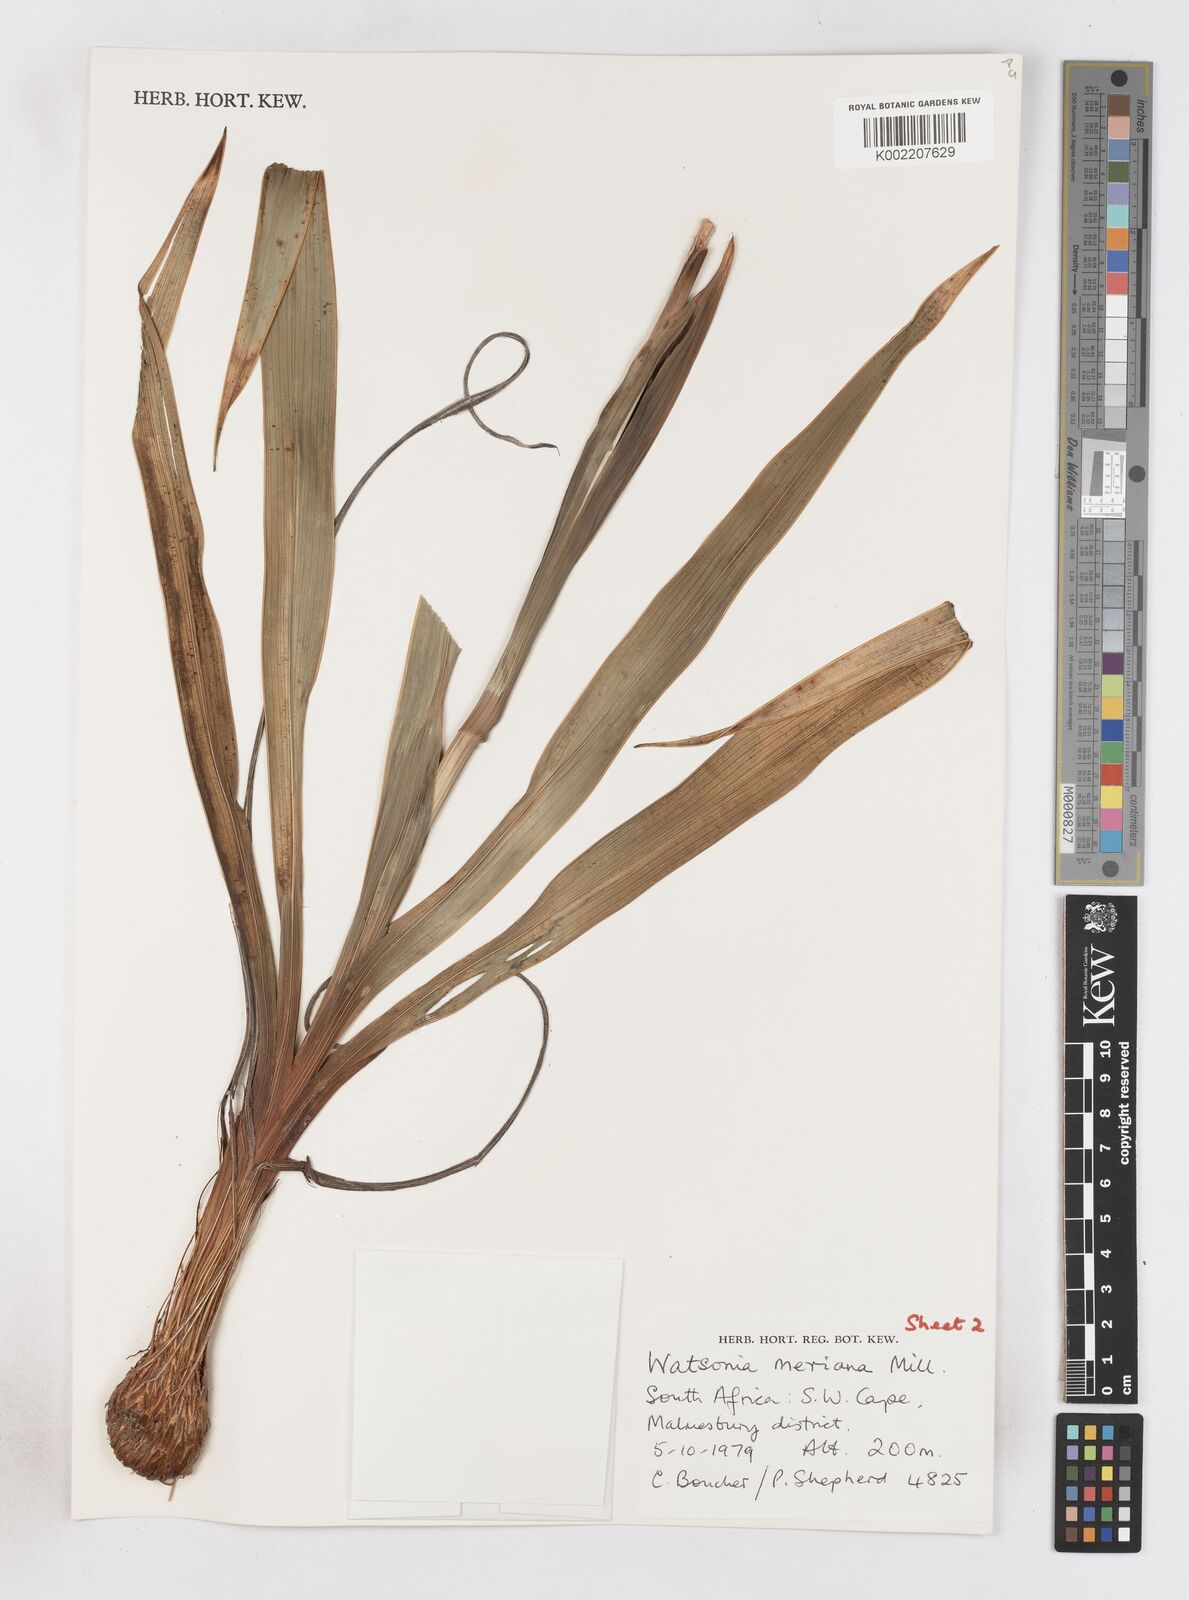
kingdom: Plantae
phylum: Tracheophyta
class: Liliopsida
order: Asparagales
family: Iridaceae
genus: Watsonia
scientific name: Watsonia meriana
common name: Bulbil bugle-lily
